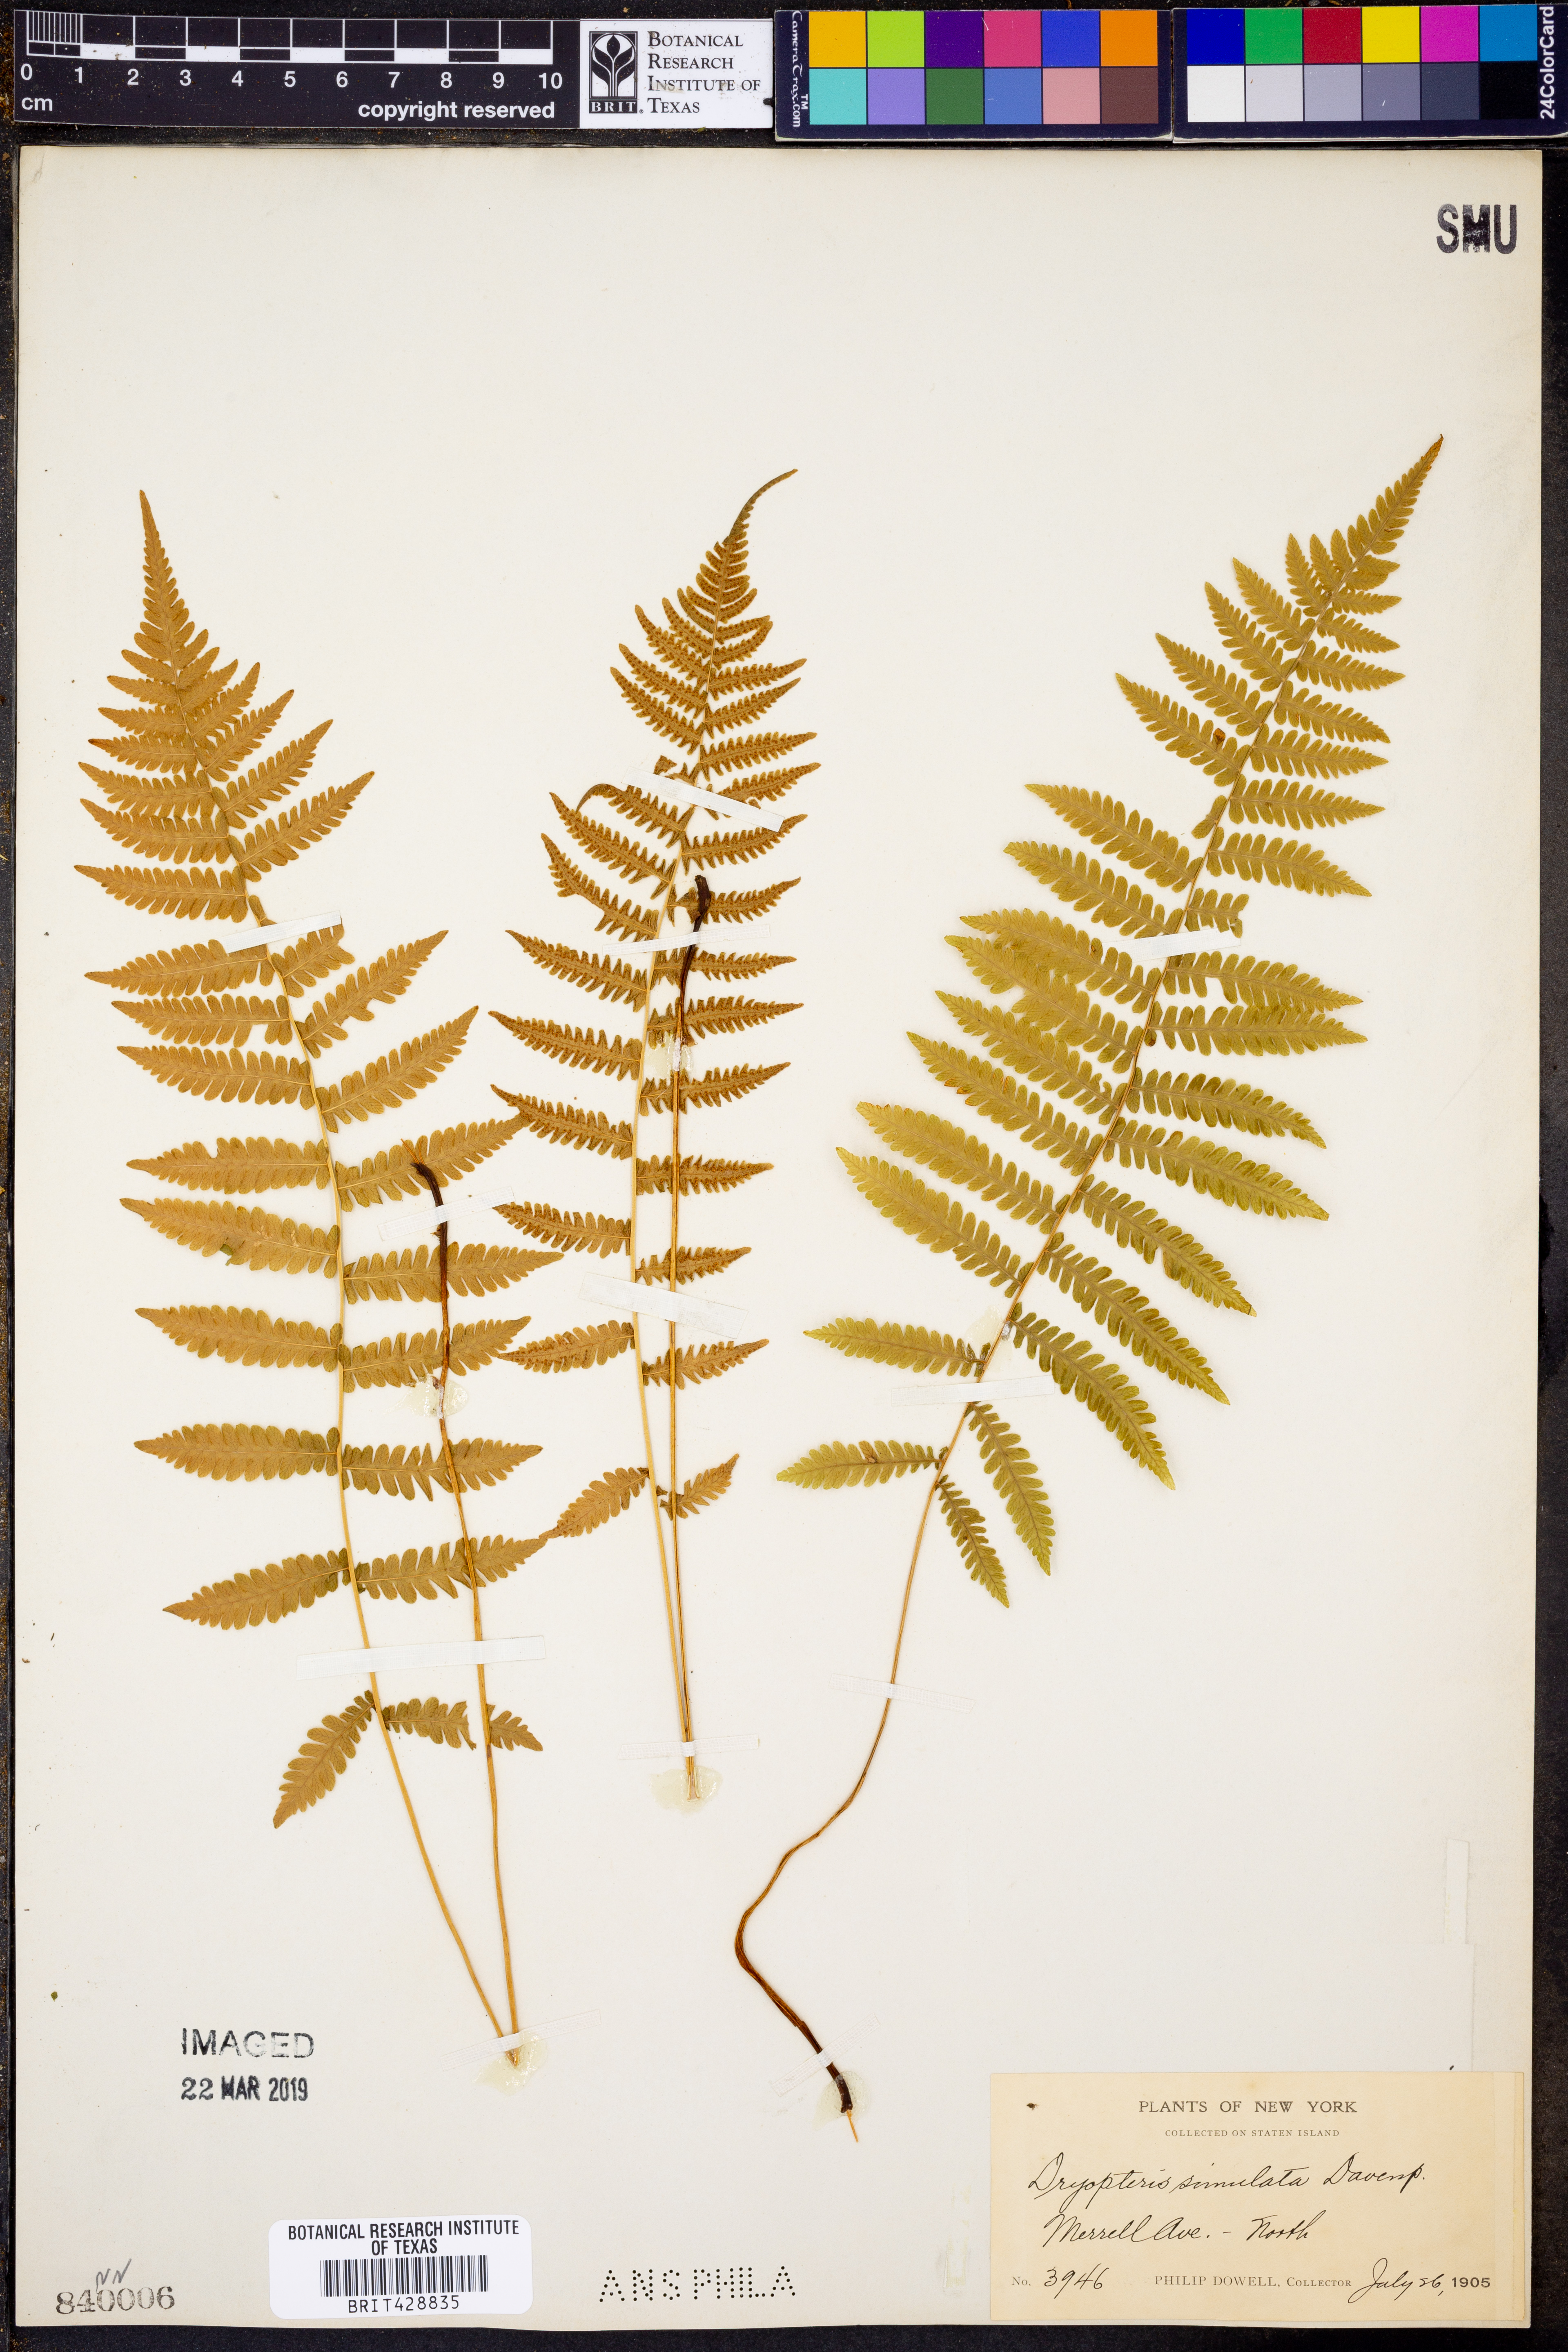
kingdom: Plantae
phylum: Tracheophyta
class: Polypodiopsida
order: Polypodiales
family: Thelypteridaceae
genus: Coryphopteris
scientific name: Coryphopteris simulata
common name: Bog fern
